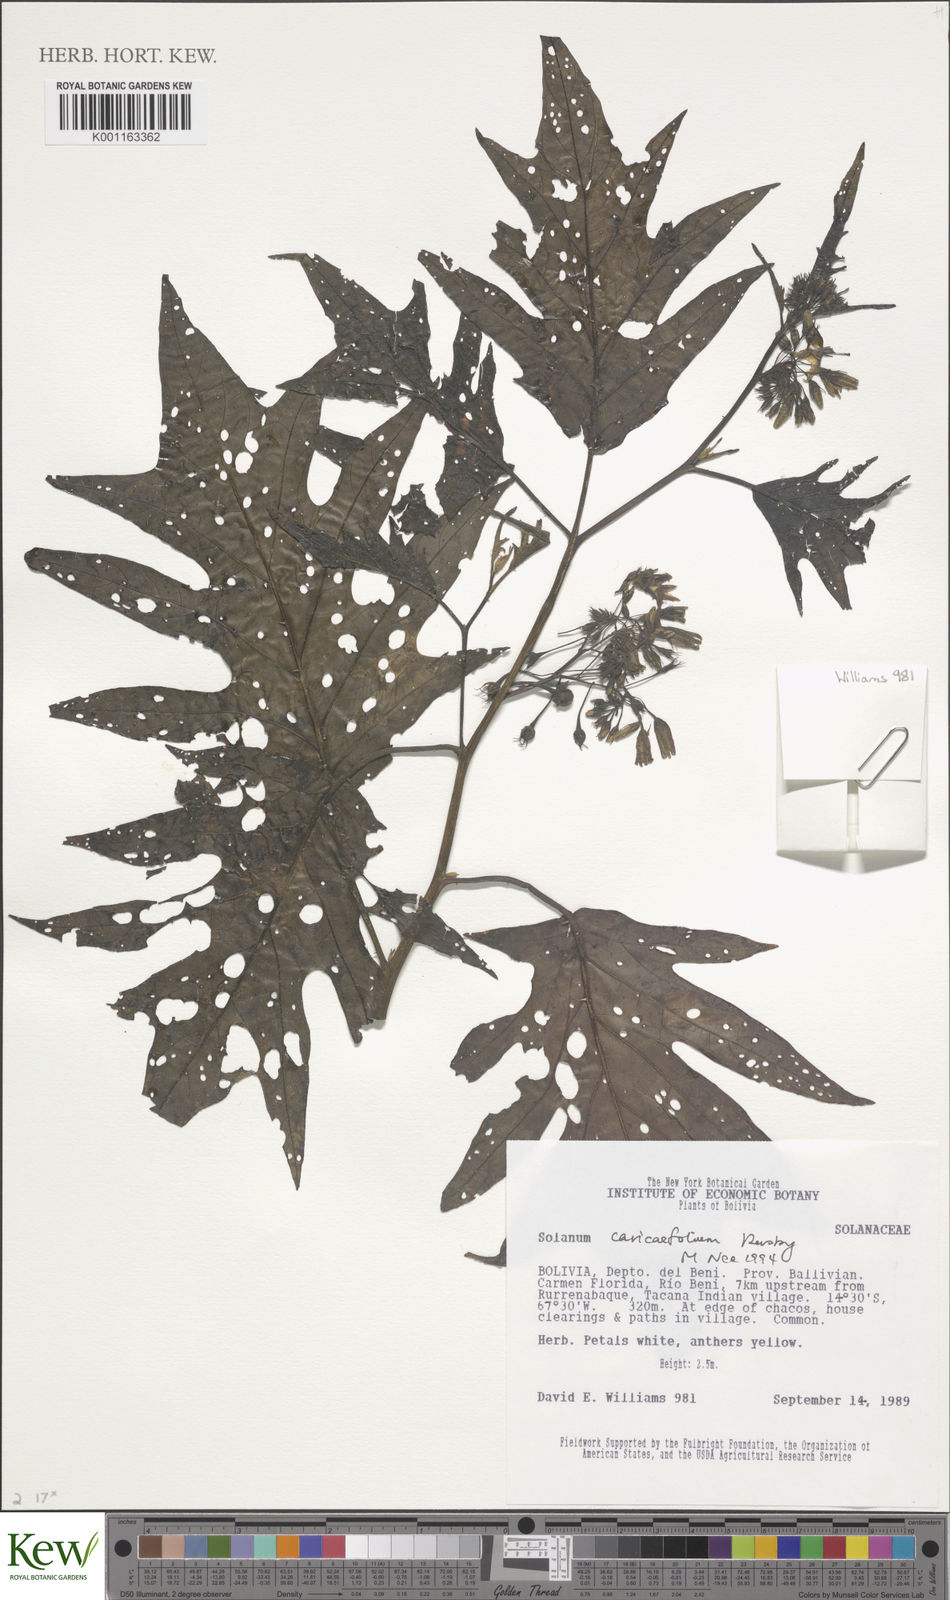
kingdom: Plantae
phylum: Tracheophyta
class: Magnoliopsida
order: Solanales
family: Solanaceae
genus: Solanum
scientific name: Solanum caricaefolium
